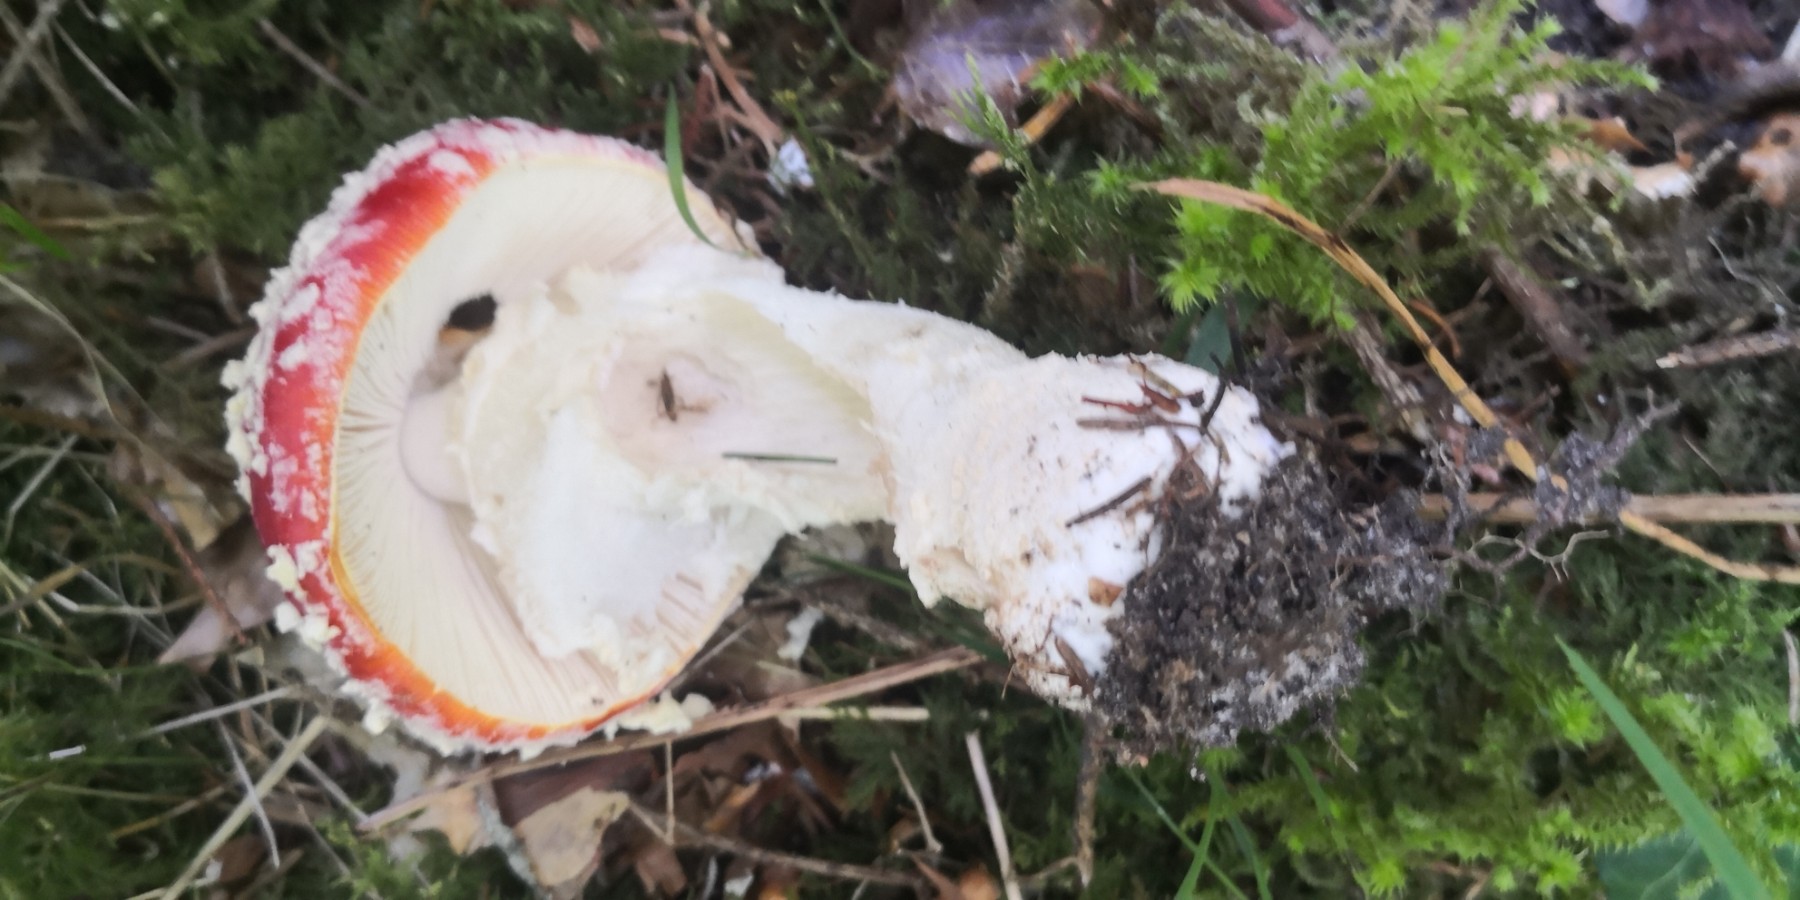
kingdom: Fungi
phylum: Basidiomycota
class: Agaricomycetes
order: Agaricales
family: Amanitaceae
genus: Amanita
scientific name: Amanita muscaria
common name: rød fluesvamp
